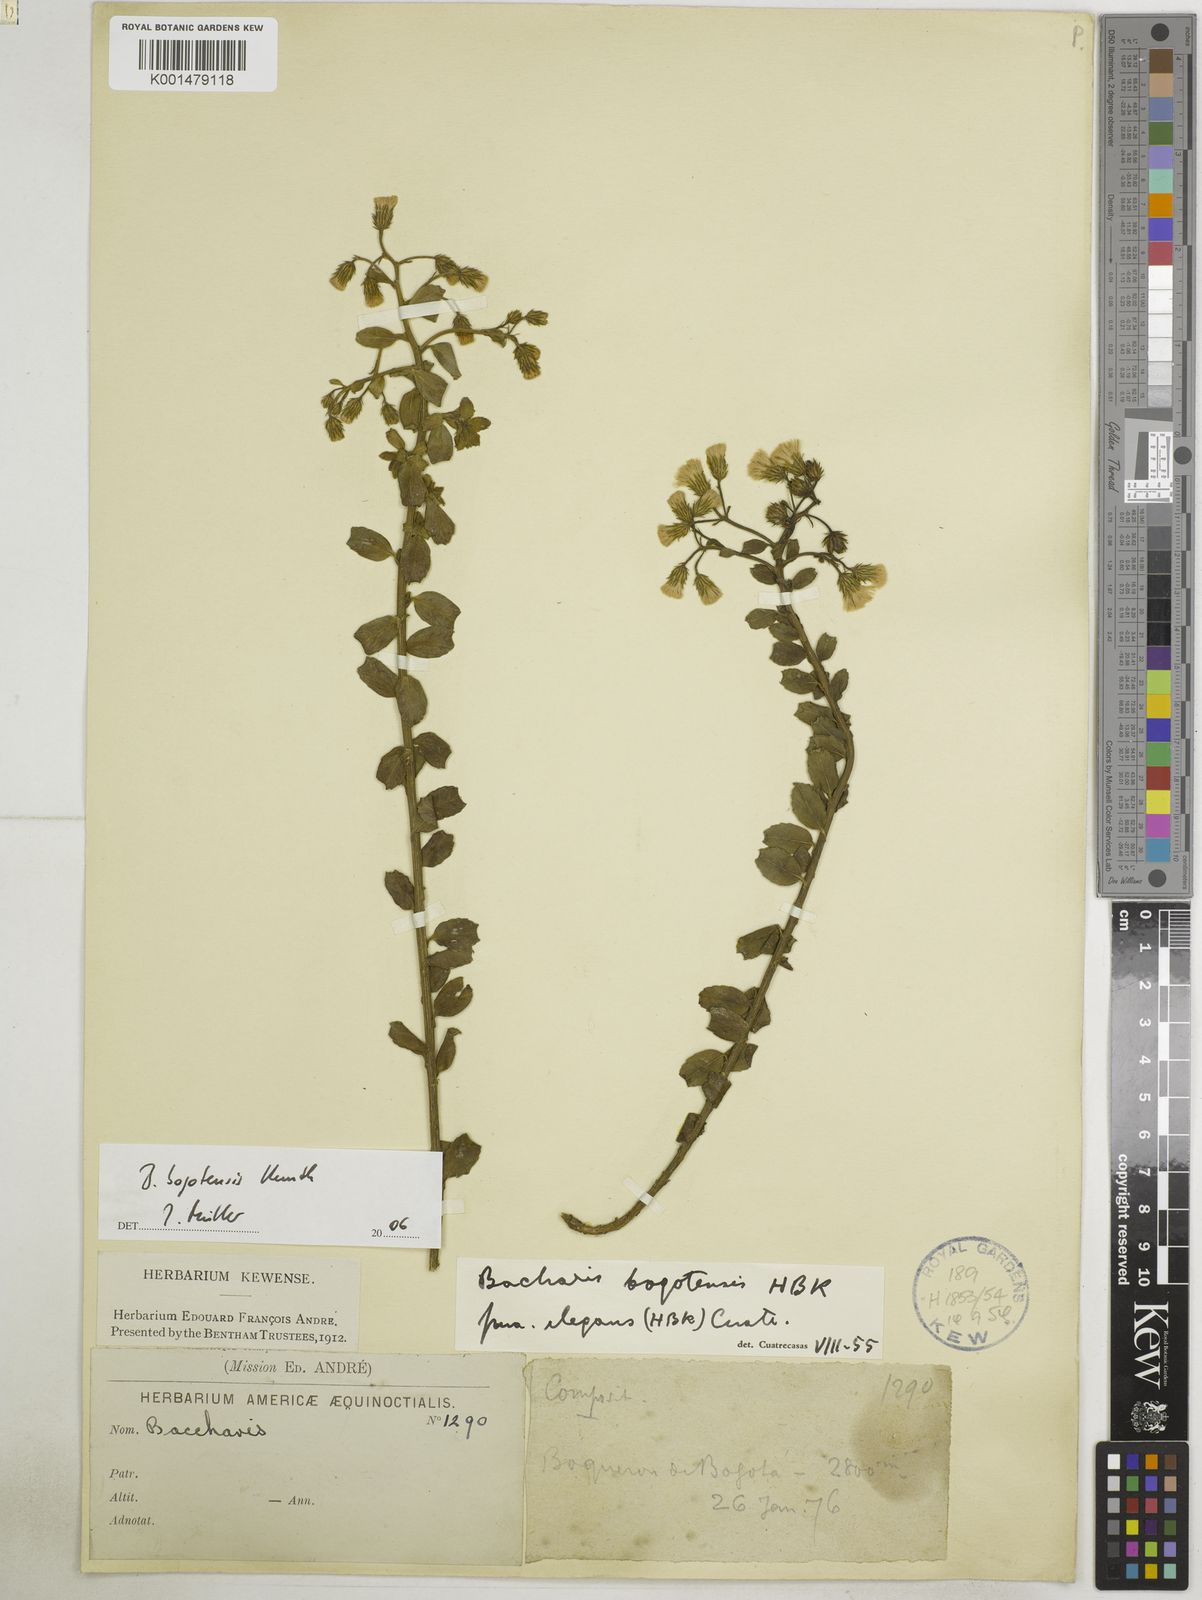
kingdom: Plantae
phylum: Tracheophyta
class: Magnoliopsida
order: Asterales
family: Asteraceae
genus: Baccharis
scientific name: Baccharis bogotensis
